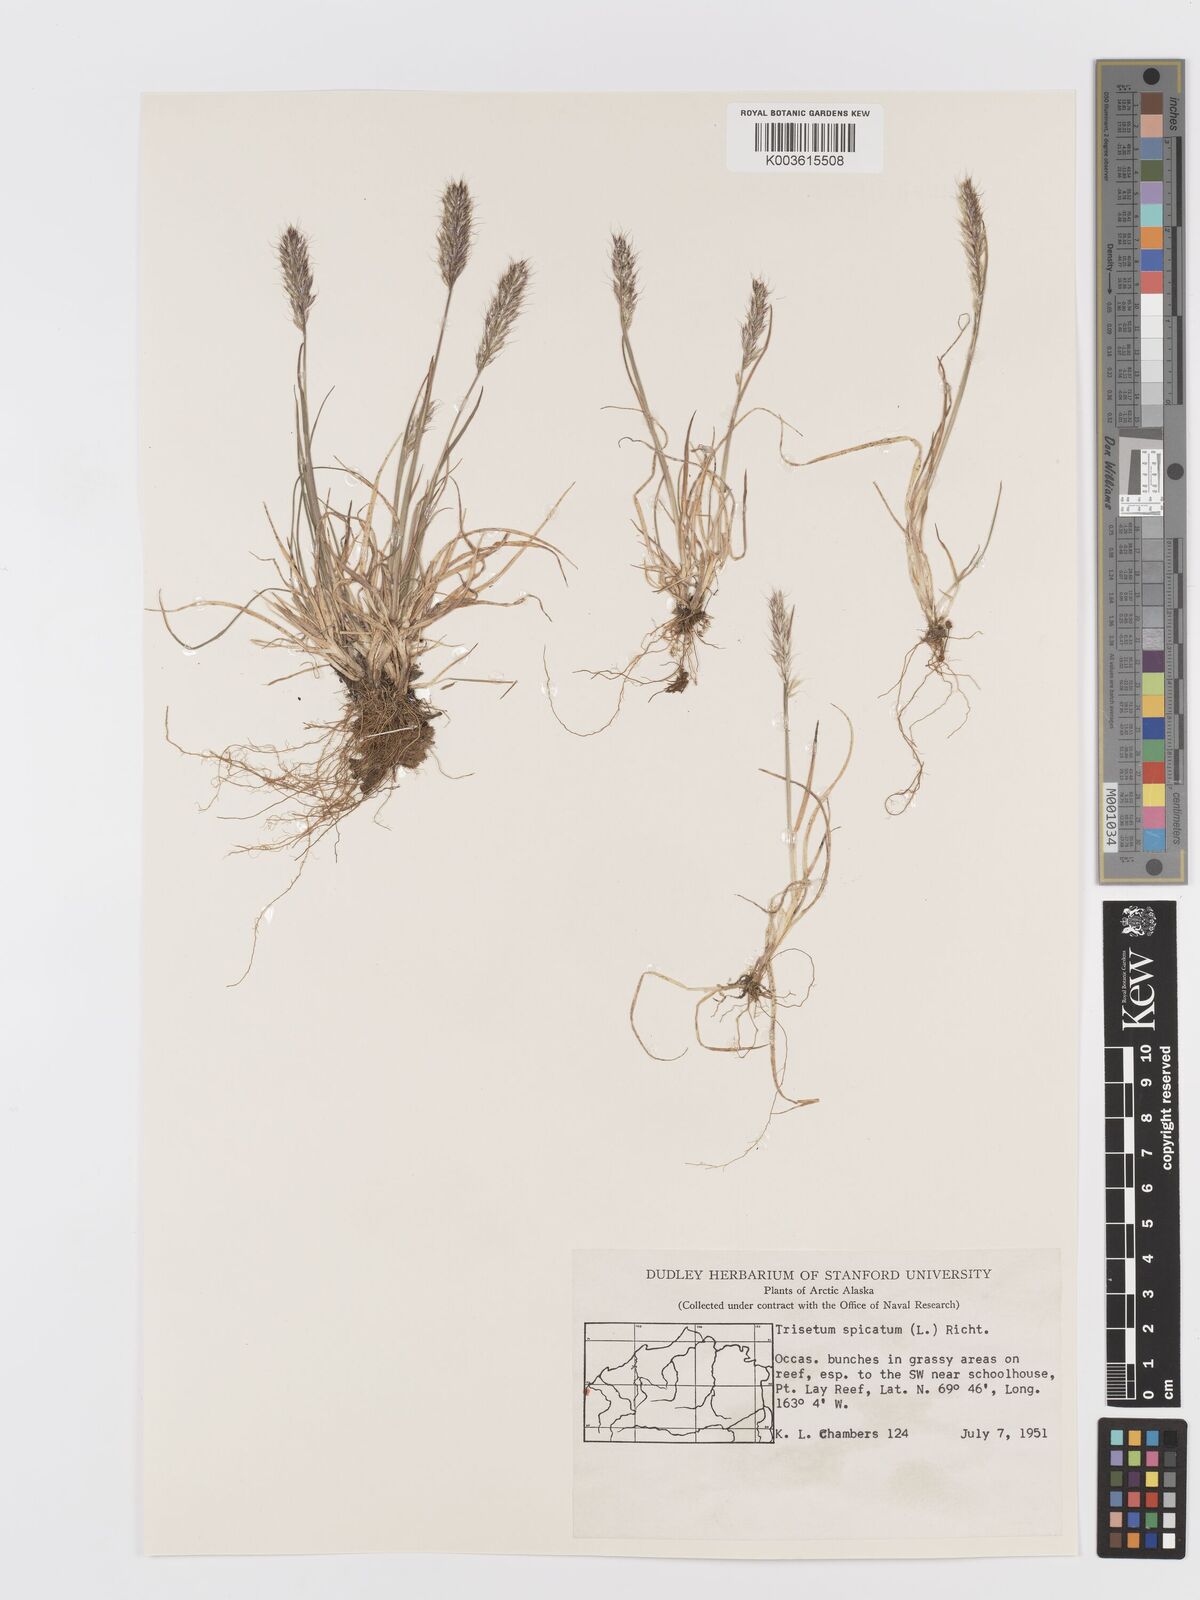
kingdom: Plantae
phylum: Tracheophyta
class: Liliopsida
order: Poales
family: Poaceae
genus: Koeleria
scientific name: Koeleria spicata
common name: Mountain trisetum
